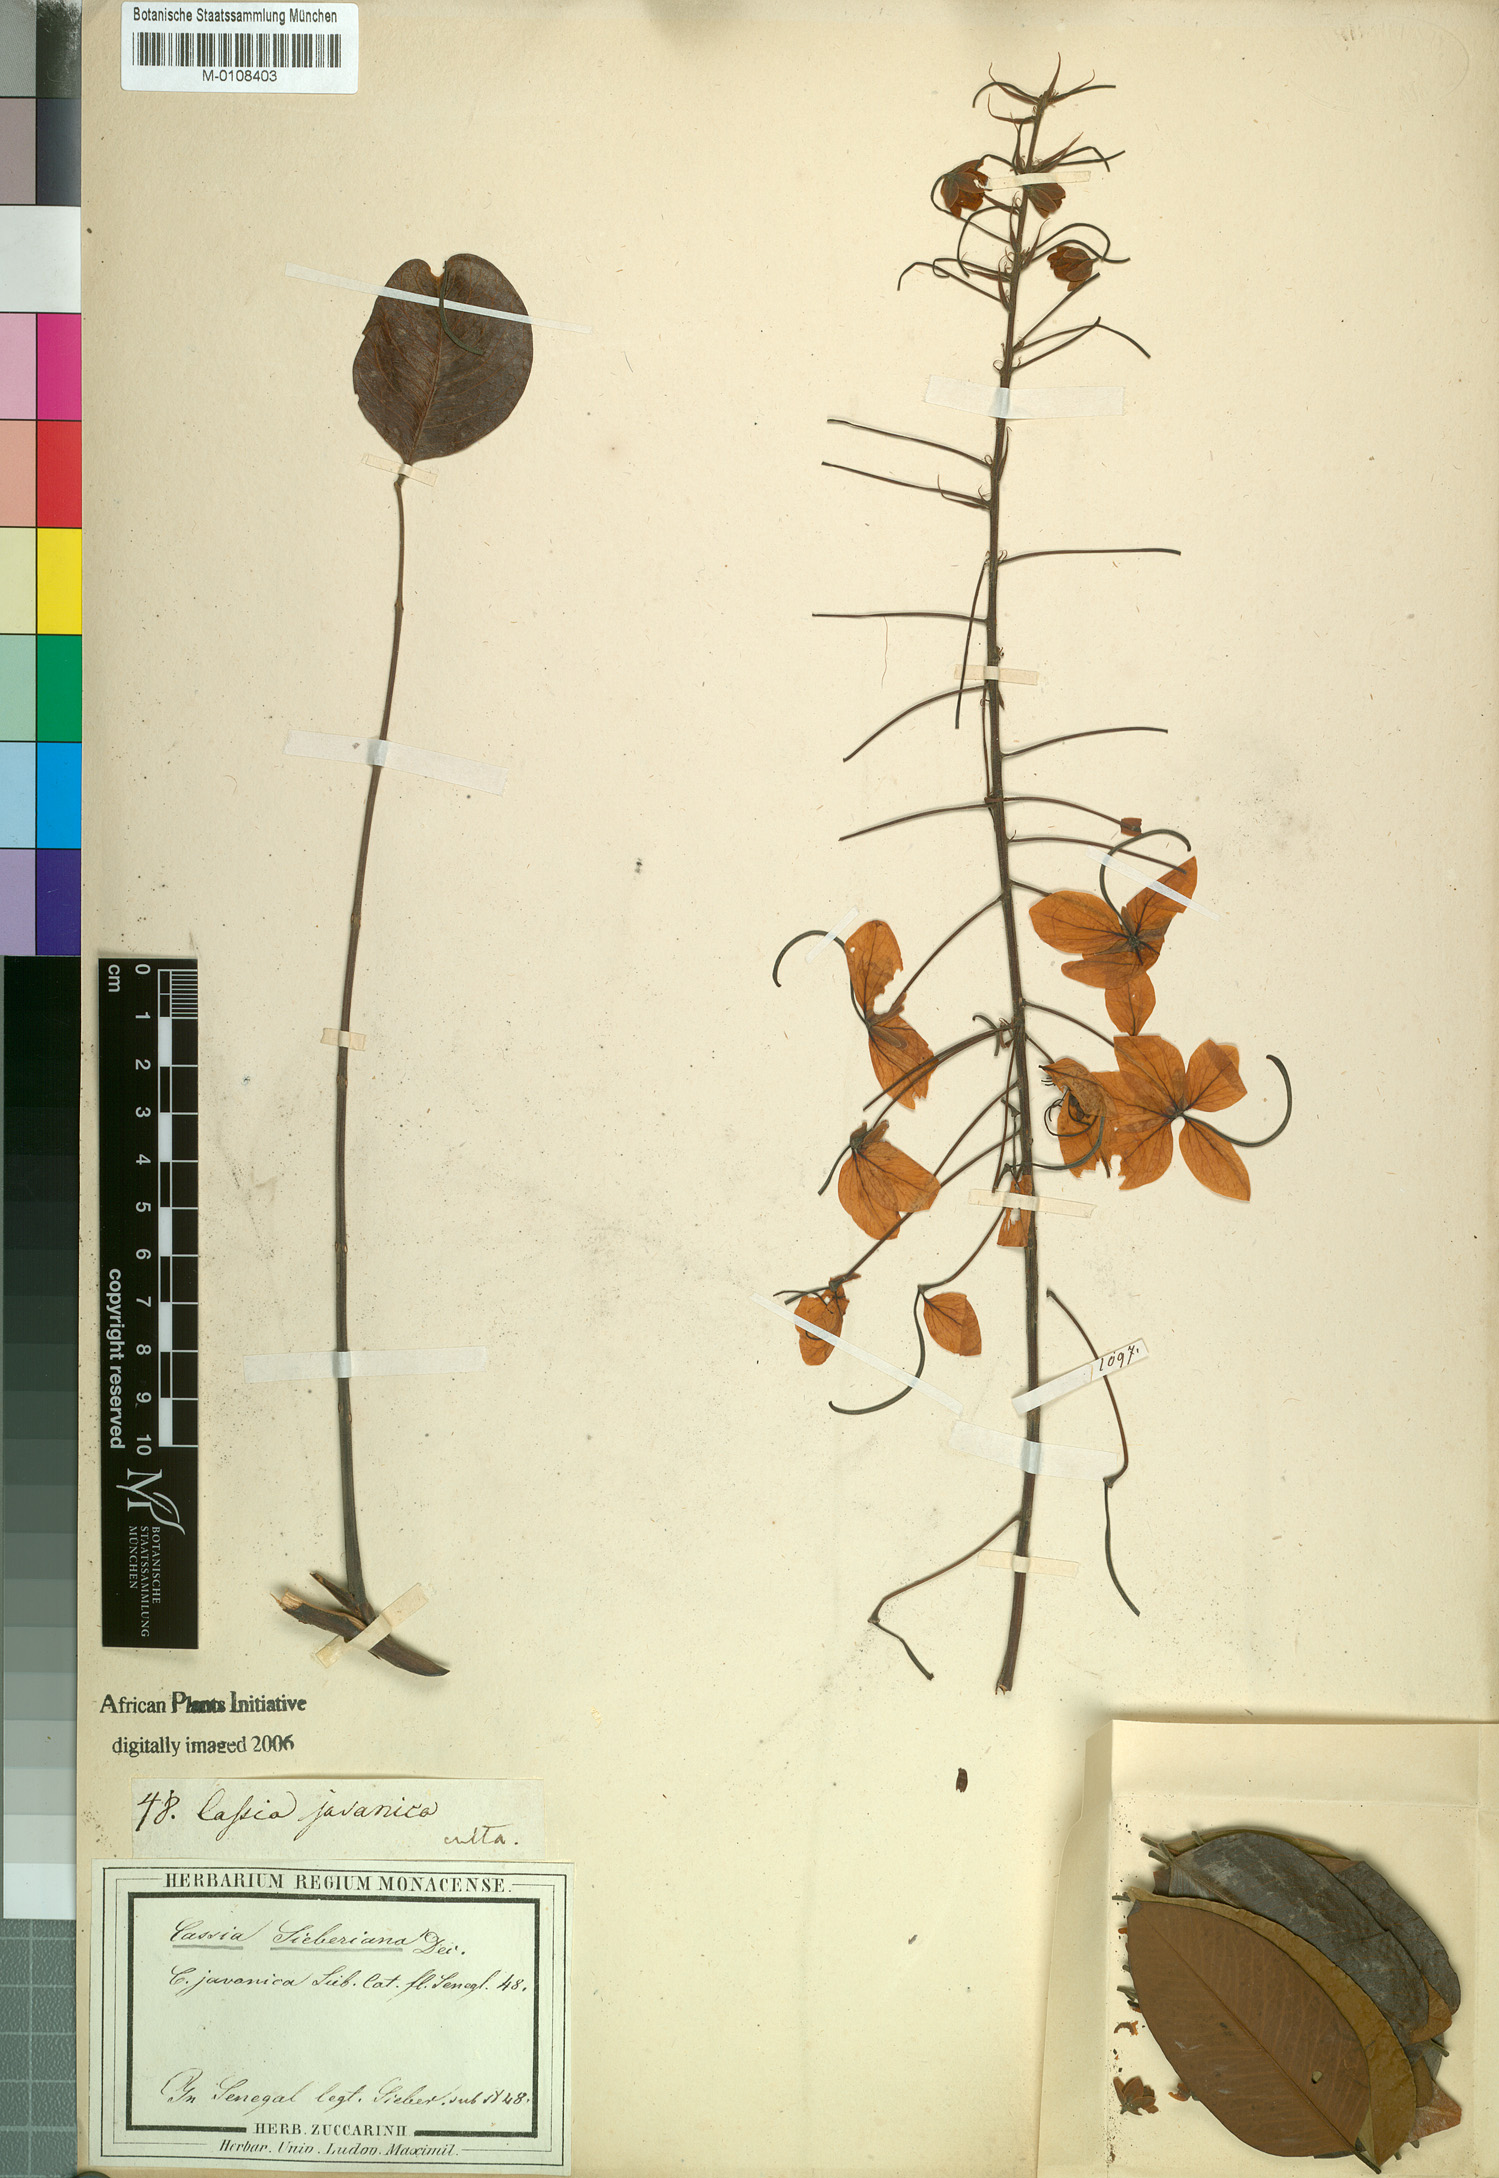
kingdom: Plantae
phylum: Tracheophyta
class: Magnoliopsida
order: Fabales
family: Fabaceae
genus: Cassia
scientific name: Cassia sieberiana
